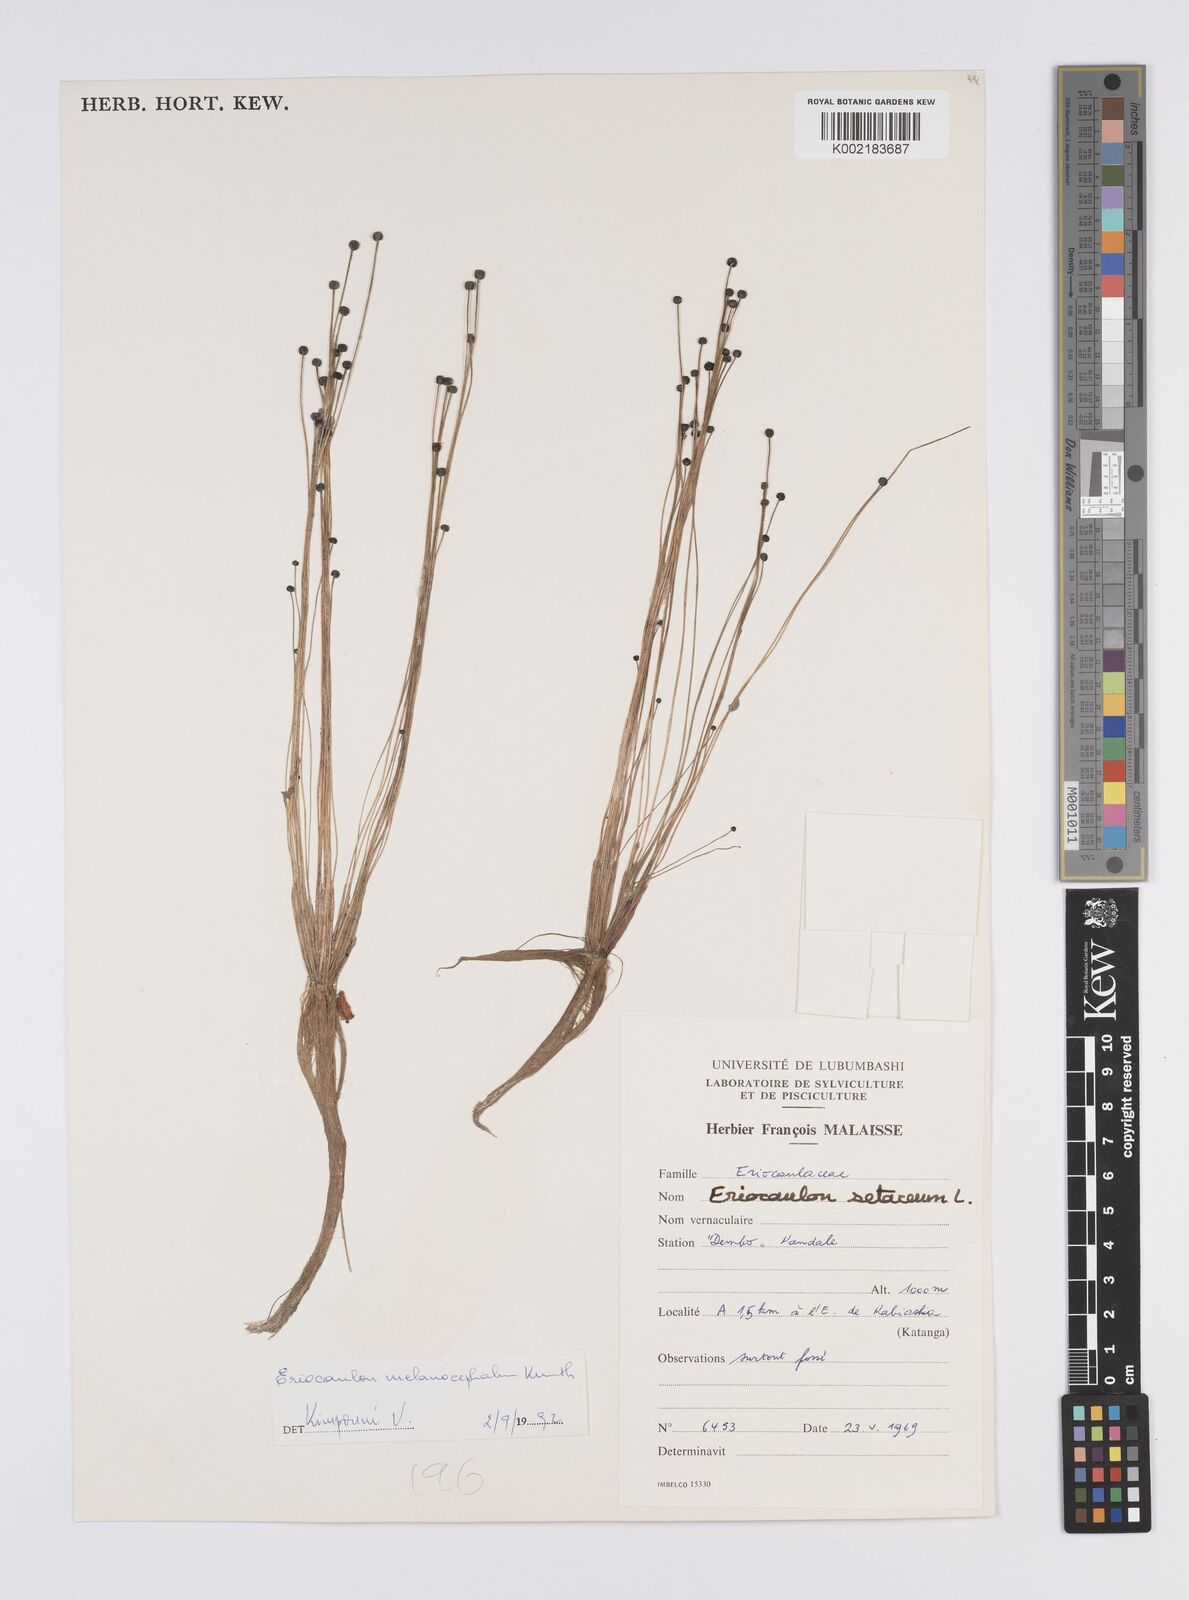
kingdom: Plantae
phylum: Tracheophyta
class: Liliopsida
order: Poales
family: Eriocaulaceae
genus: Eriocaulon
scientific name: Eriocaulon setaceum
